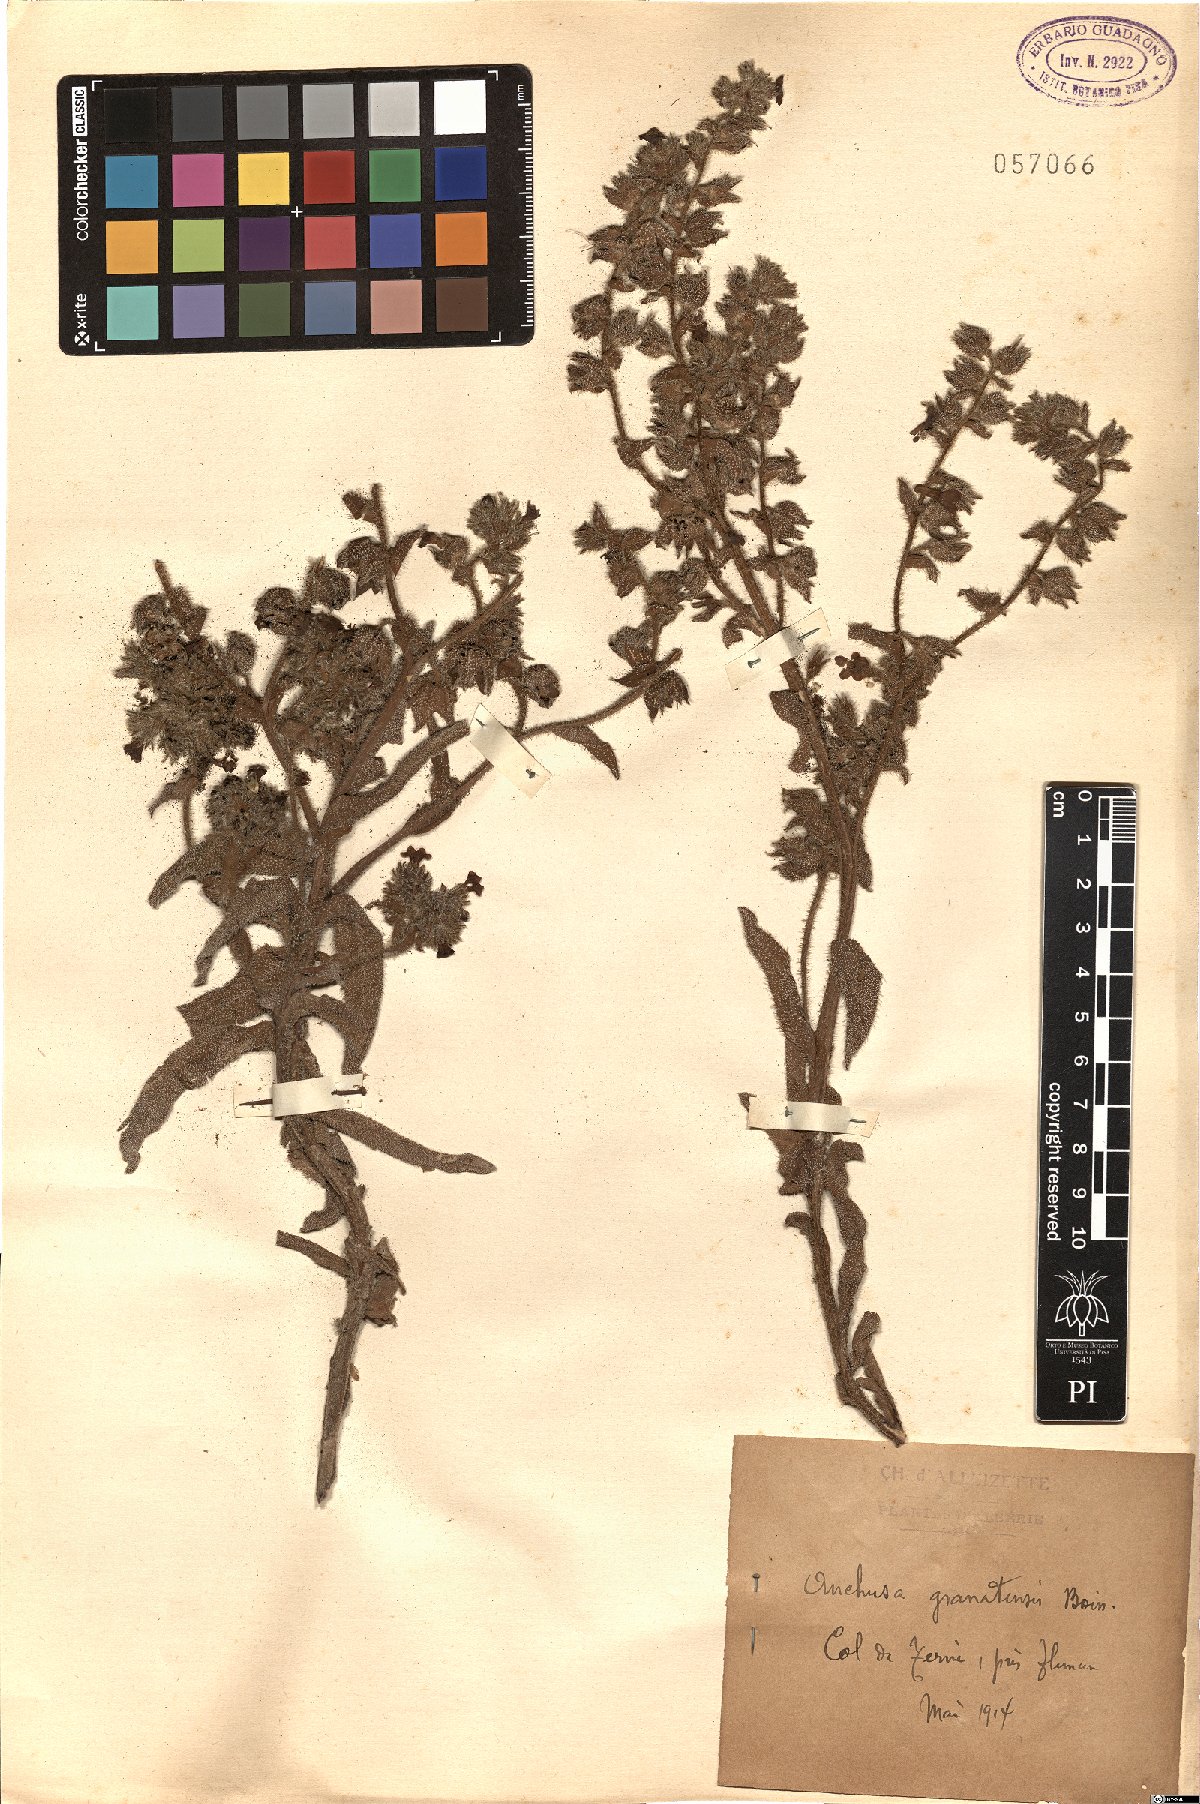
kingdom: Plantae
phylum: Tracheophyta
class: Magnoliopsida
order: Boraginales
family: Boraginaceae
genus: Anchusa
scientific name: Anchusa undulata
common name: Undulate alkanet
